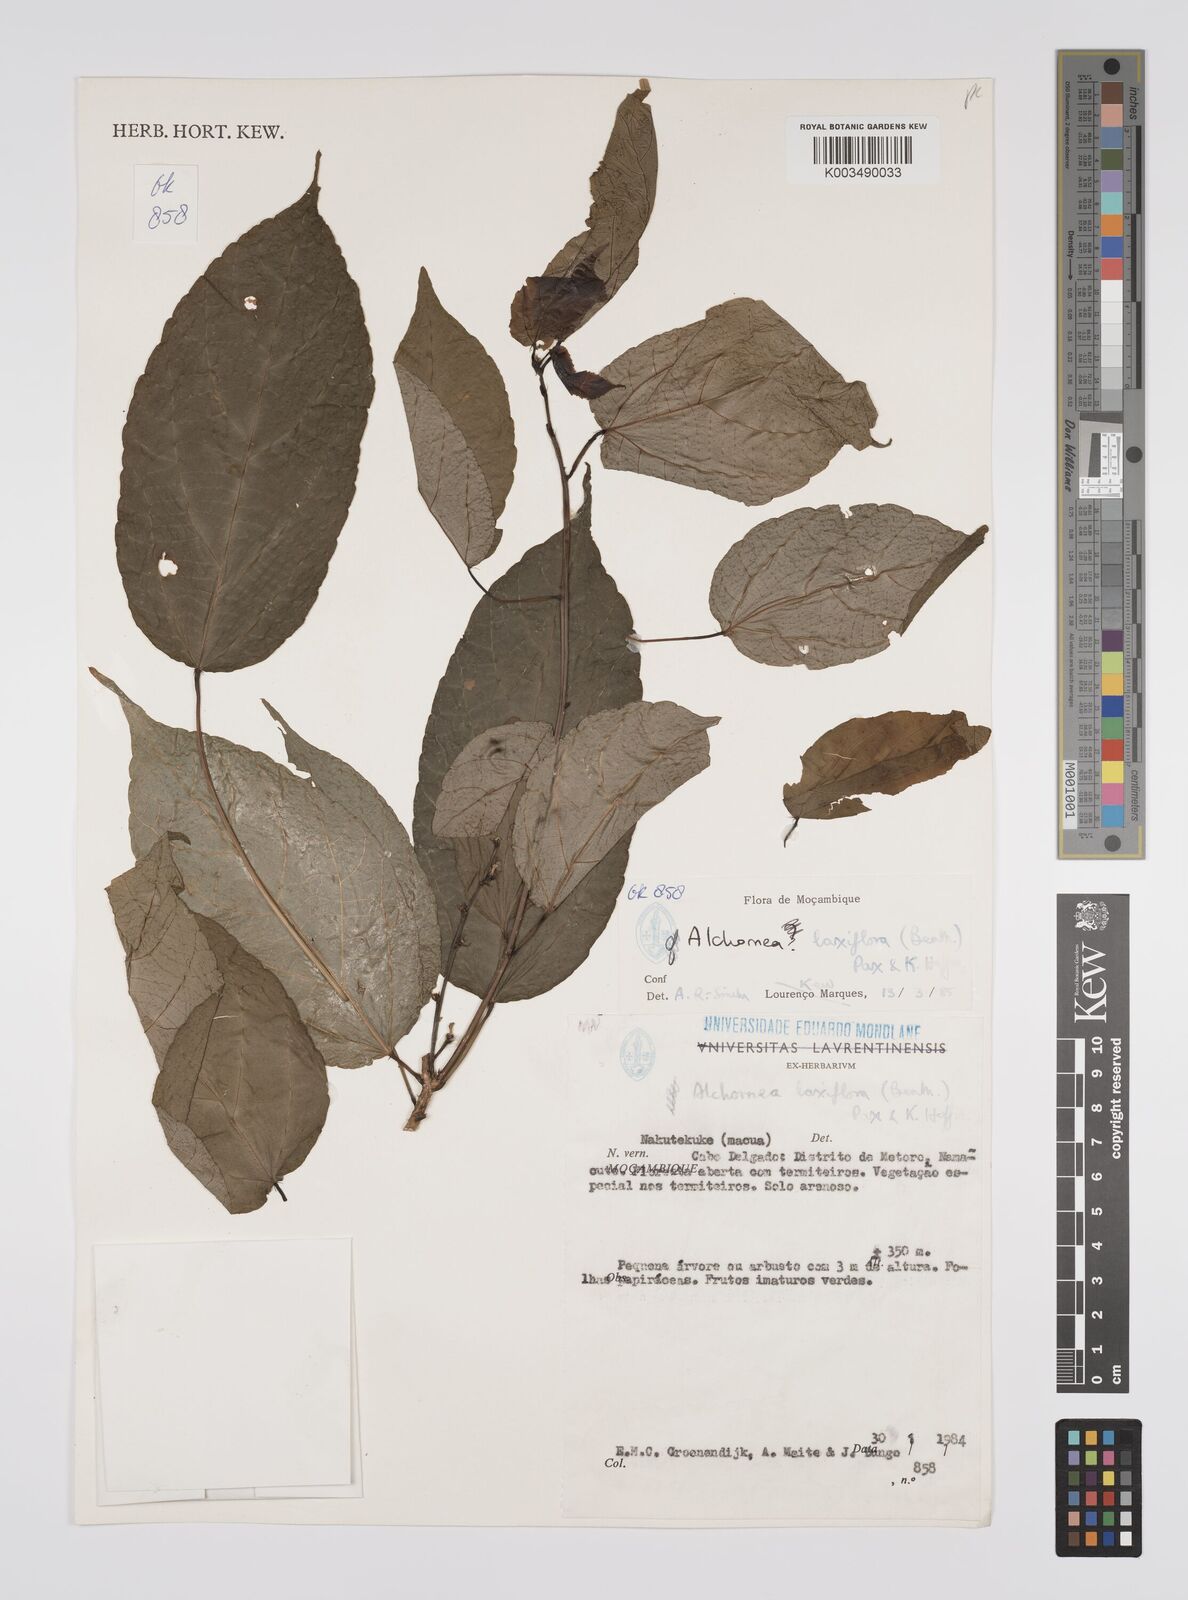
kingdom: Plantae
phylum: Tracheophyta
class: Magnoliopsida
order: Malpighiales
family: Euphorbiaceae
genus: Alchornea
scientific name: Alchornea laxiflora
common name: Lowveld bead-string
